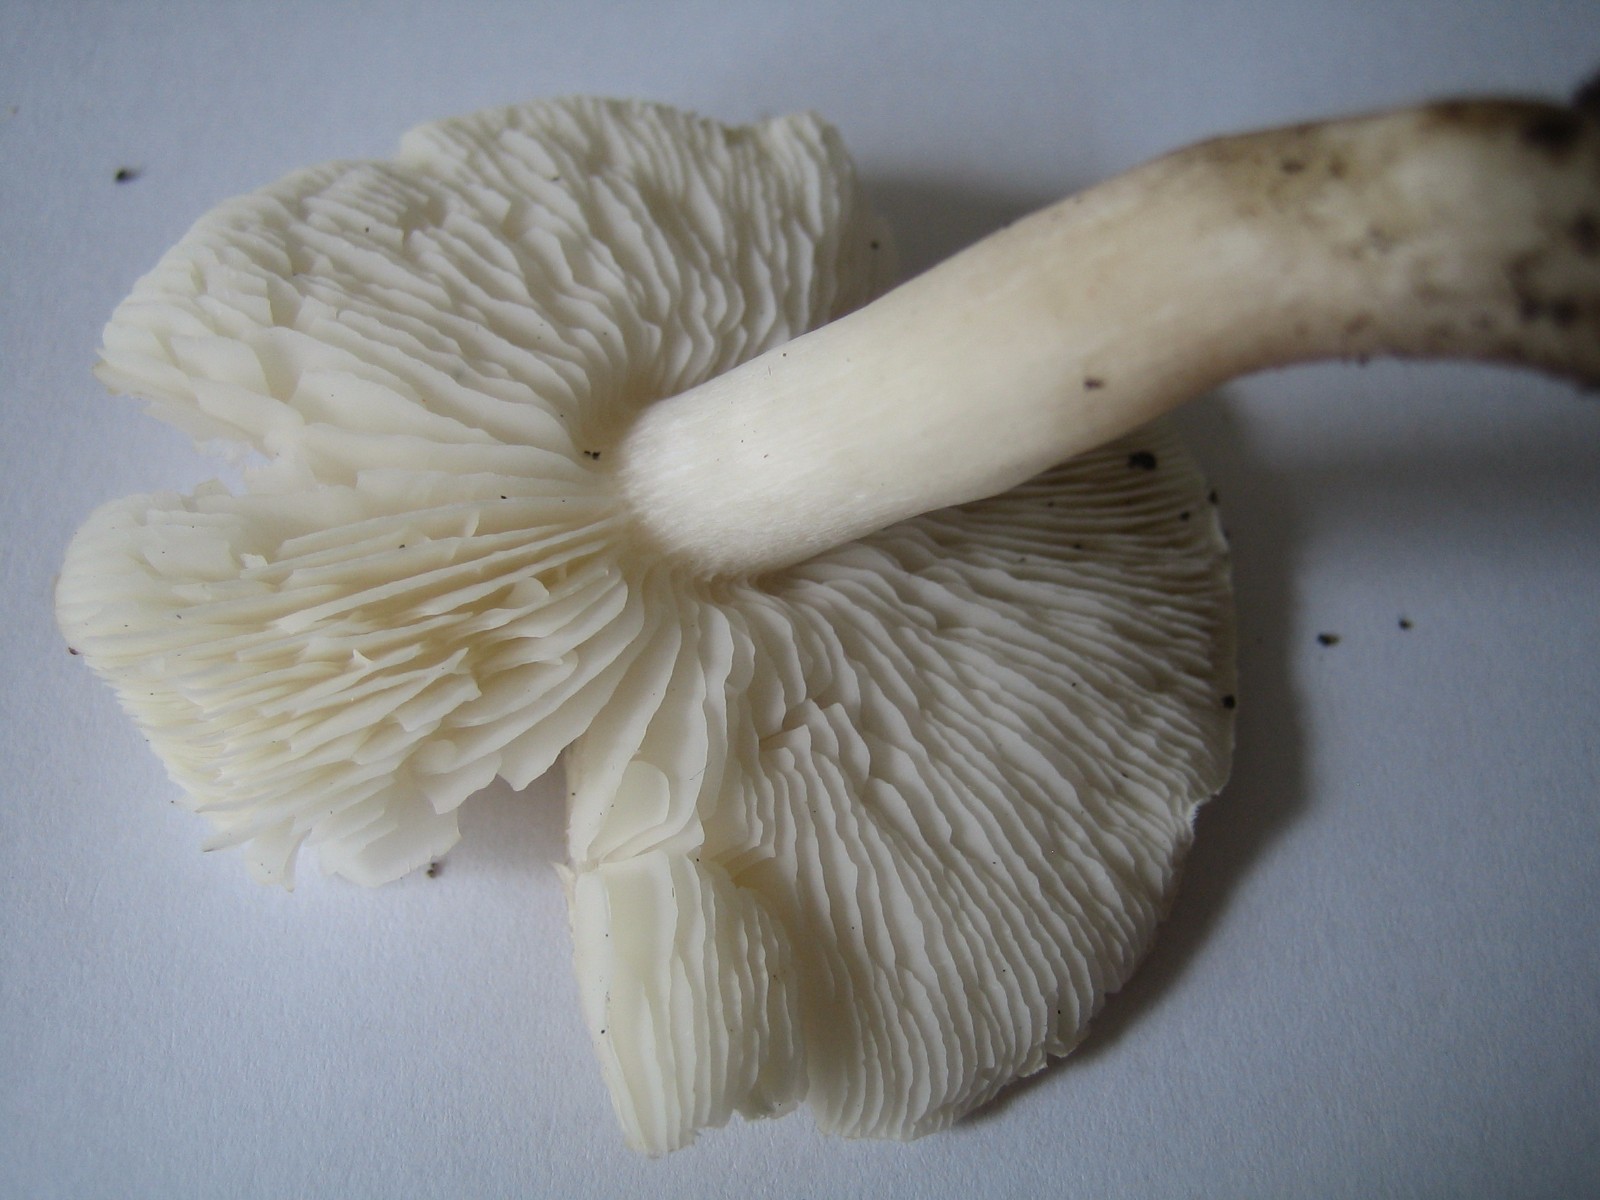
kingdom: Fungi
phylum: Basidiomycota
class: Agaricomycetes
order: Agaricales
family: Tricholomataceae
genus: Tricholoma
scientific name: Tricholoma
